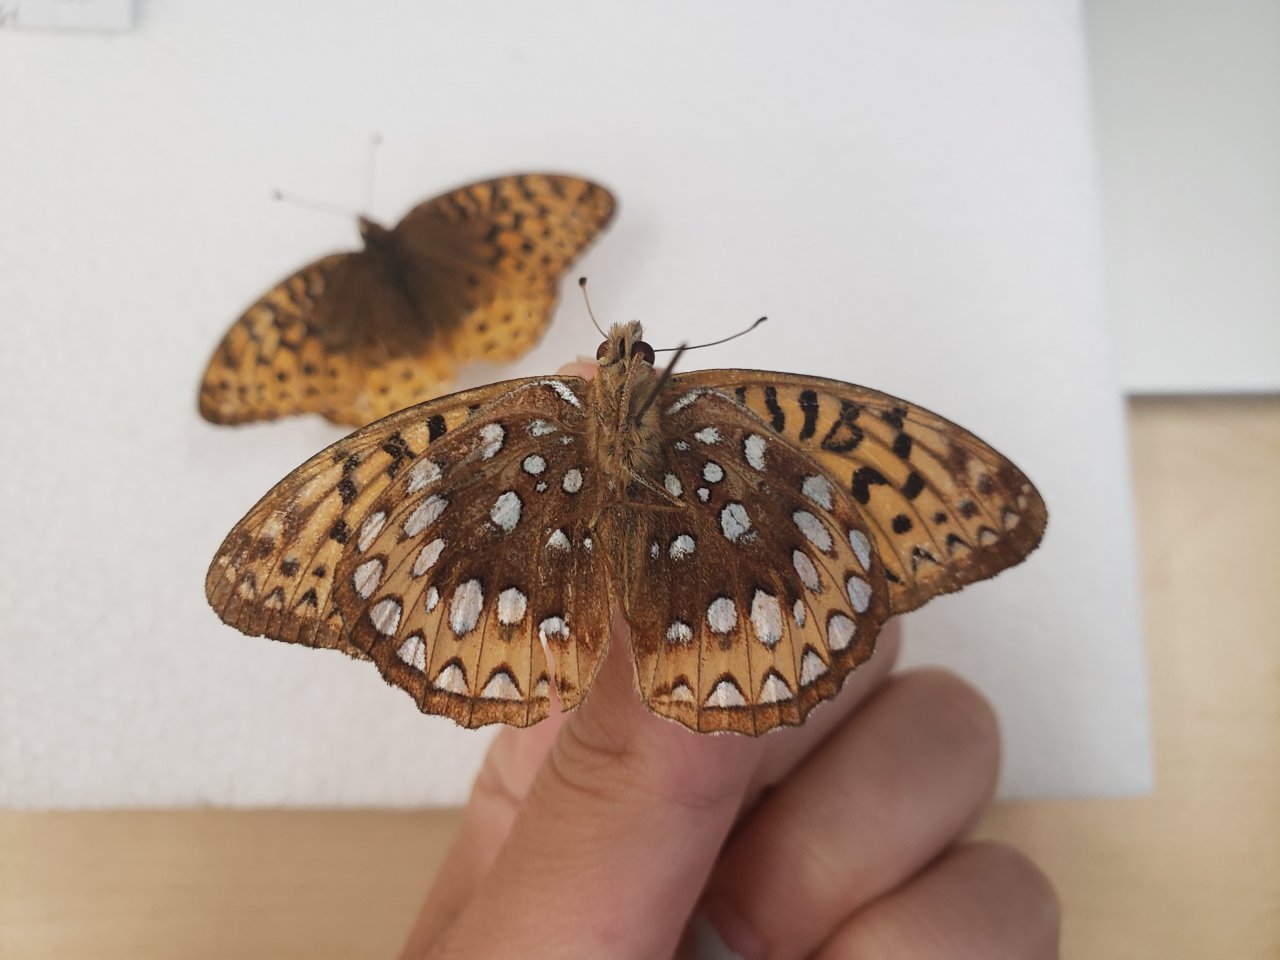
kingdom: Animalia
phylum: Arthropoda
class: Insecta
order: Lepidoptera
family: Nymphalidae
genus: Speyeria
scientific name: Speyeria cybele
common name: Great Spangled Fritillary
